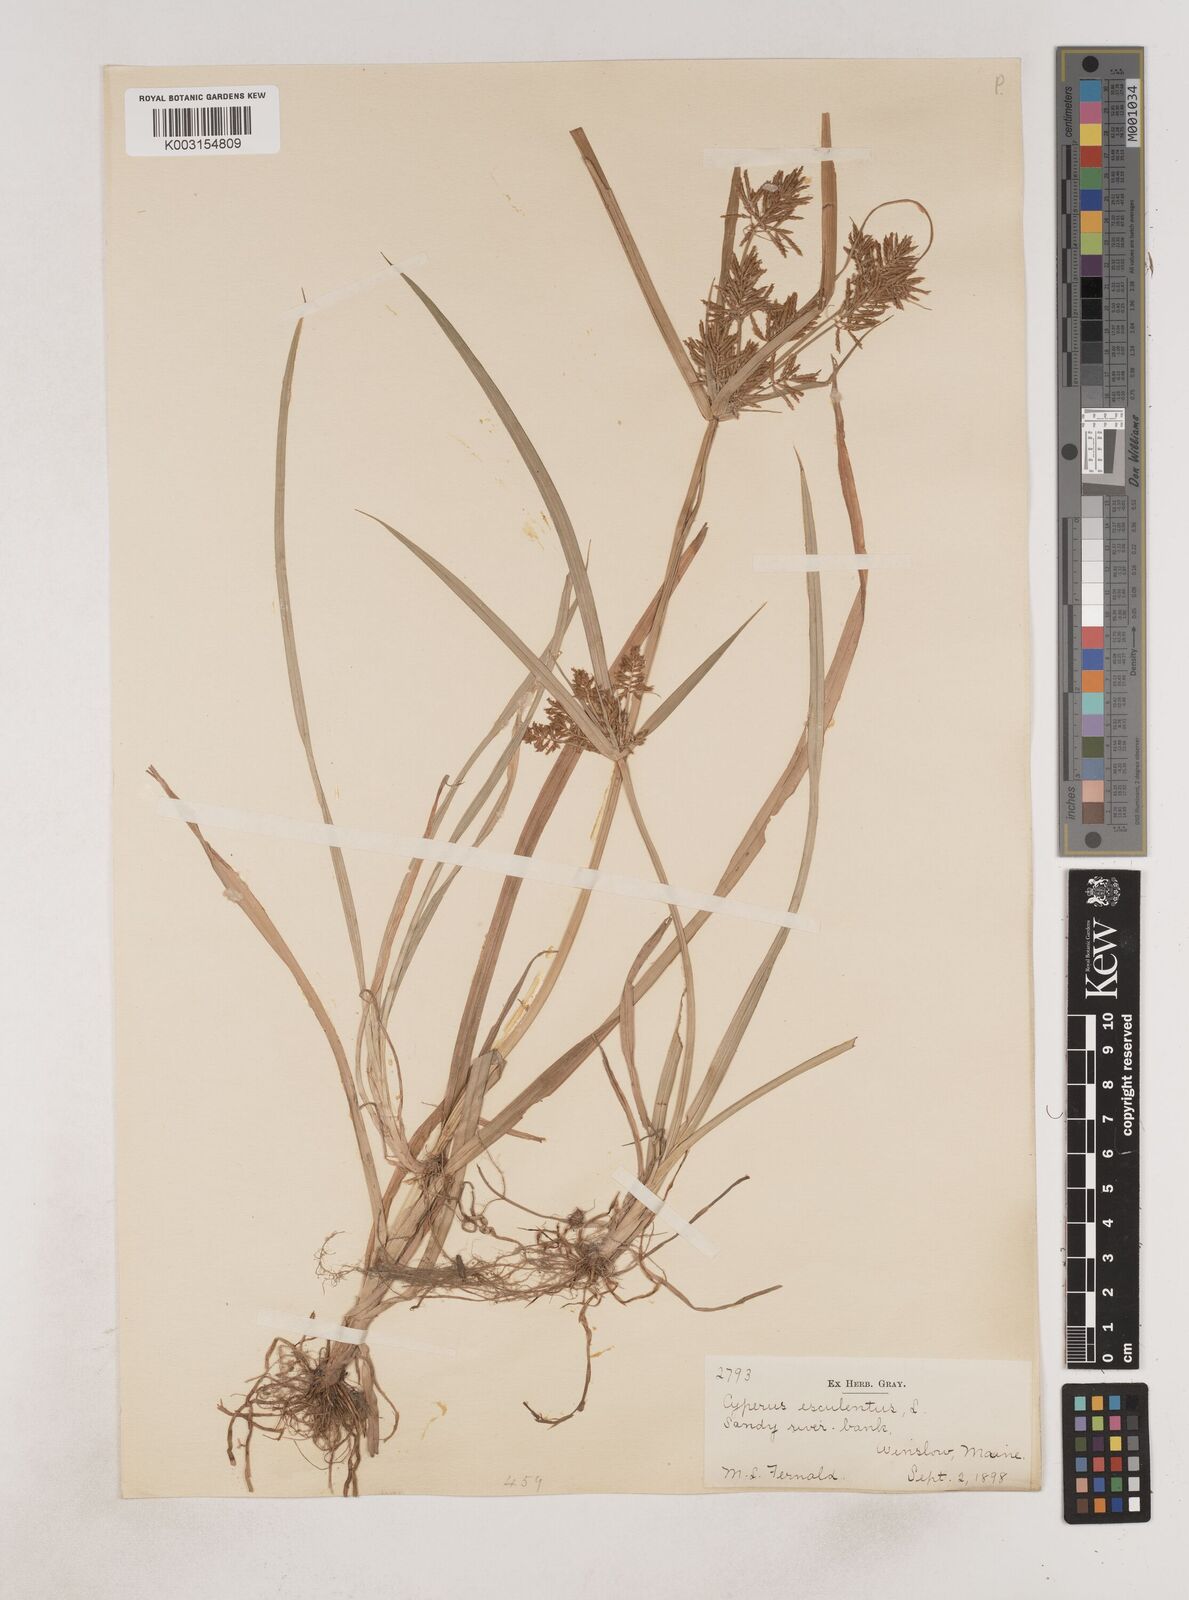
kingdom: Plantae
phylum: Tracheophyta
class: Liliopsida
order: Poales
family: Cyperaceae
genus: Cyperus
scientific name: Cyperus esculentus
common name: Yellow nutsedge
